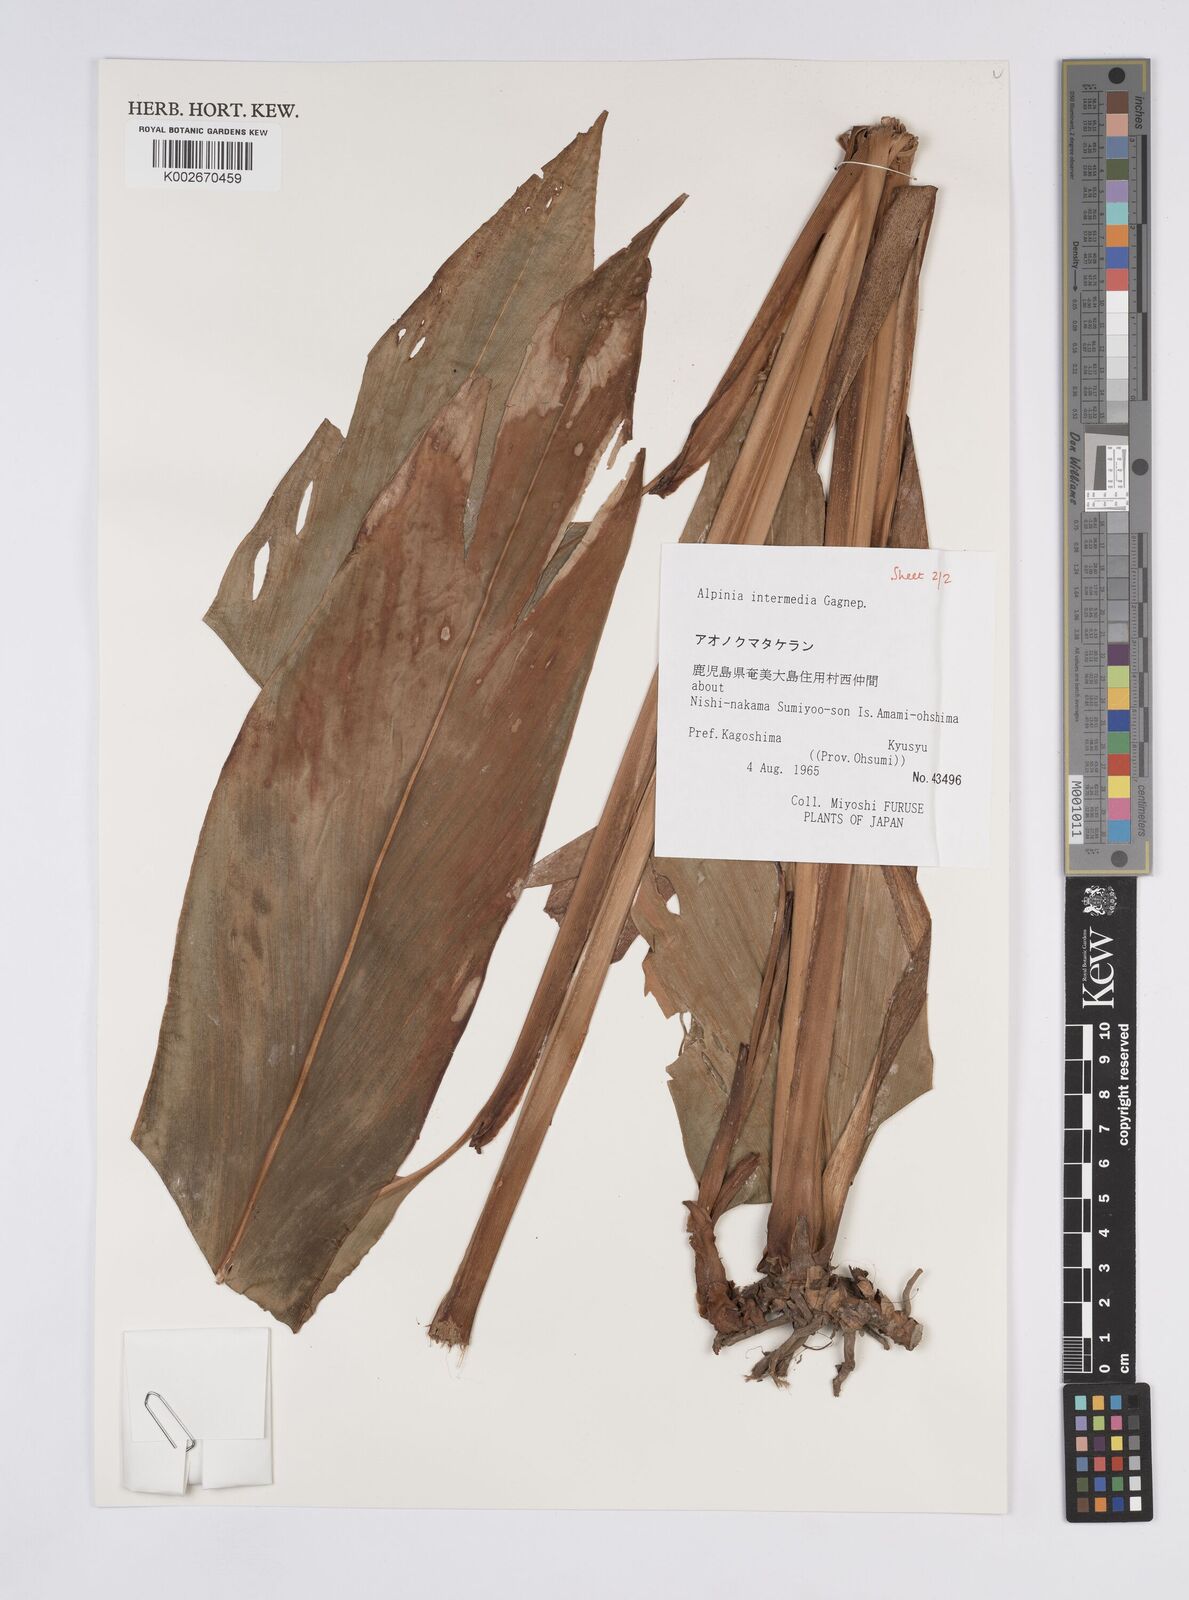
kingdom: Plantae
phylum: Tracheophyta
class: Liliopsida
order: Zingiberales
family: Zingiberaceae
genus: Alpinia
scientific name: Alpinia intermedia
